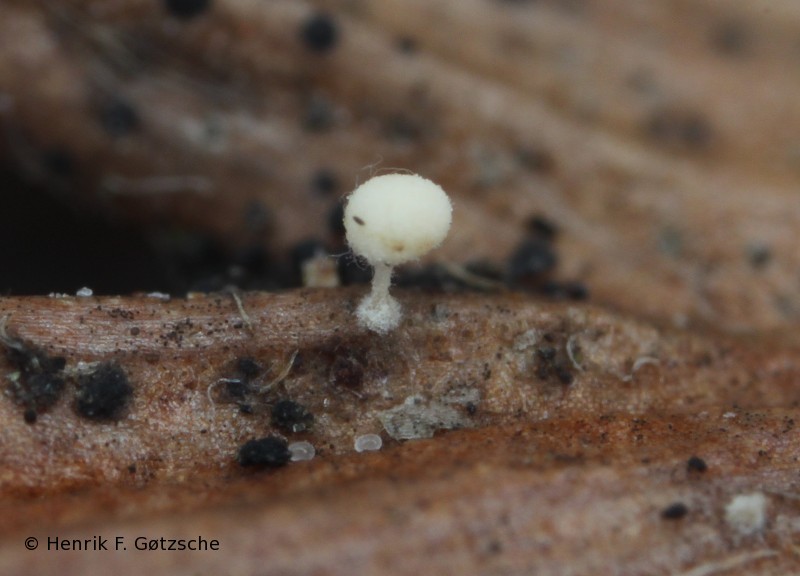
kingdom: Fungi
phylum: Basidiomycota
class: Agaricomycetes
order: Agaricales
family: Physalacriaceae
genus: Physalacria
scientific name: Physalacria cryptomeriae
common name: japangran-boldkølle
